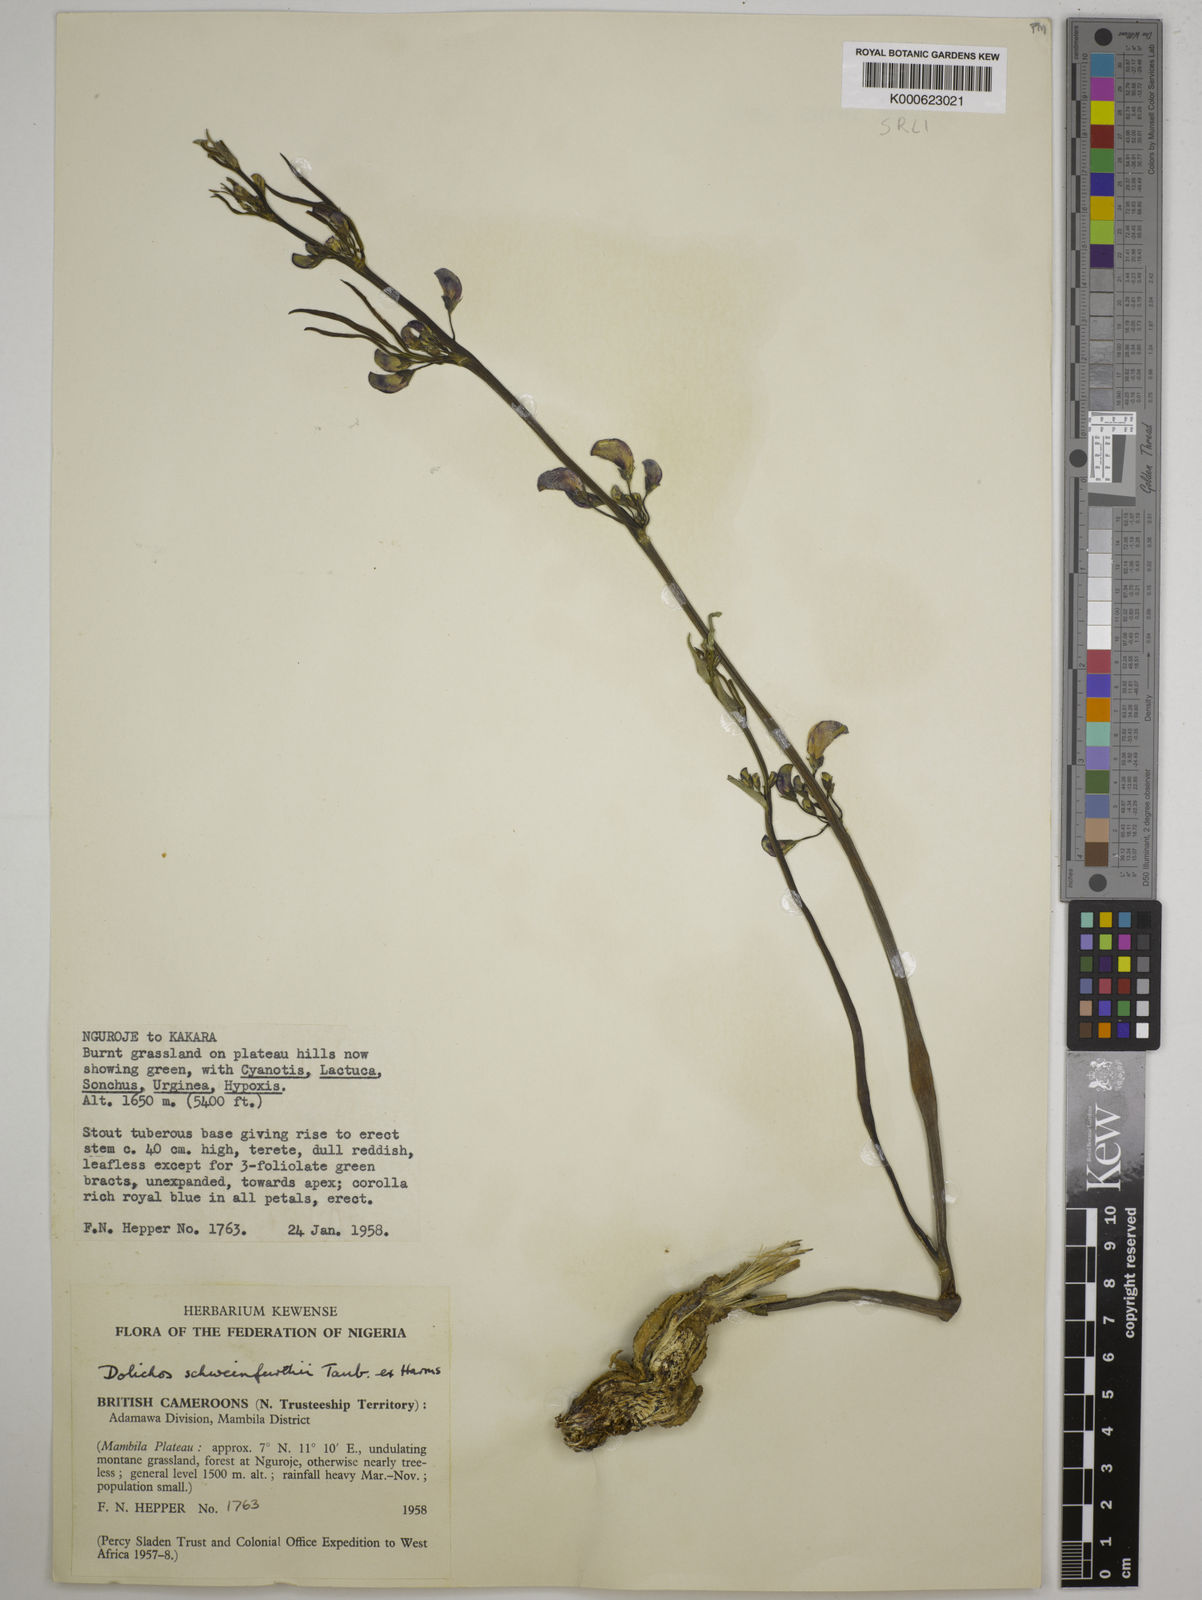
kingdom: Plantae
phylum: Tracheophyta
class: Magnoliopsida
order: Fabales
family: Fabaceae
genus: Dolichos
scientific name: Dolichos
